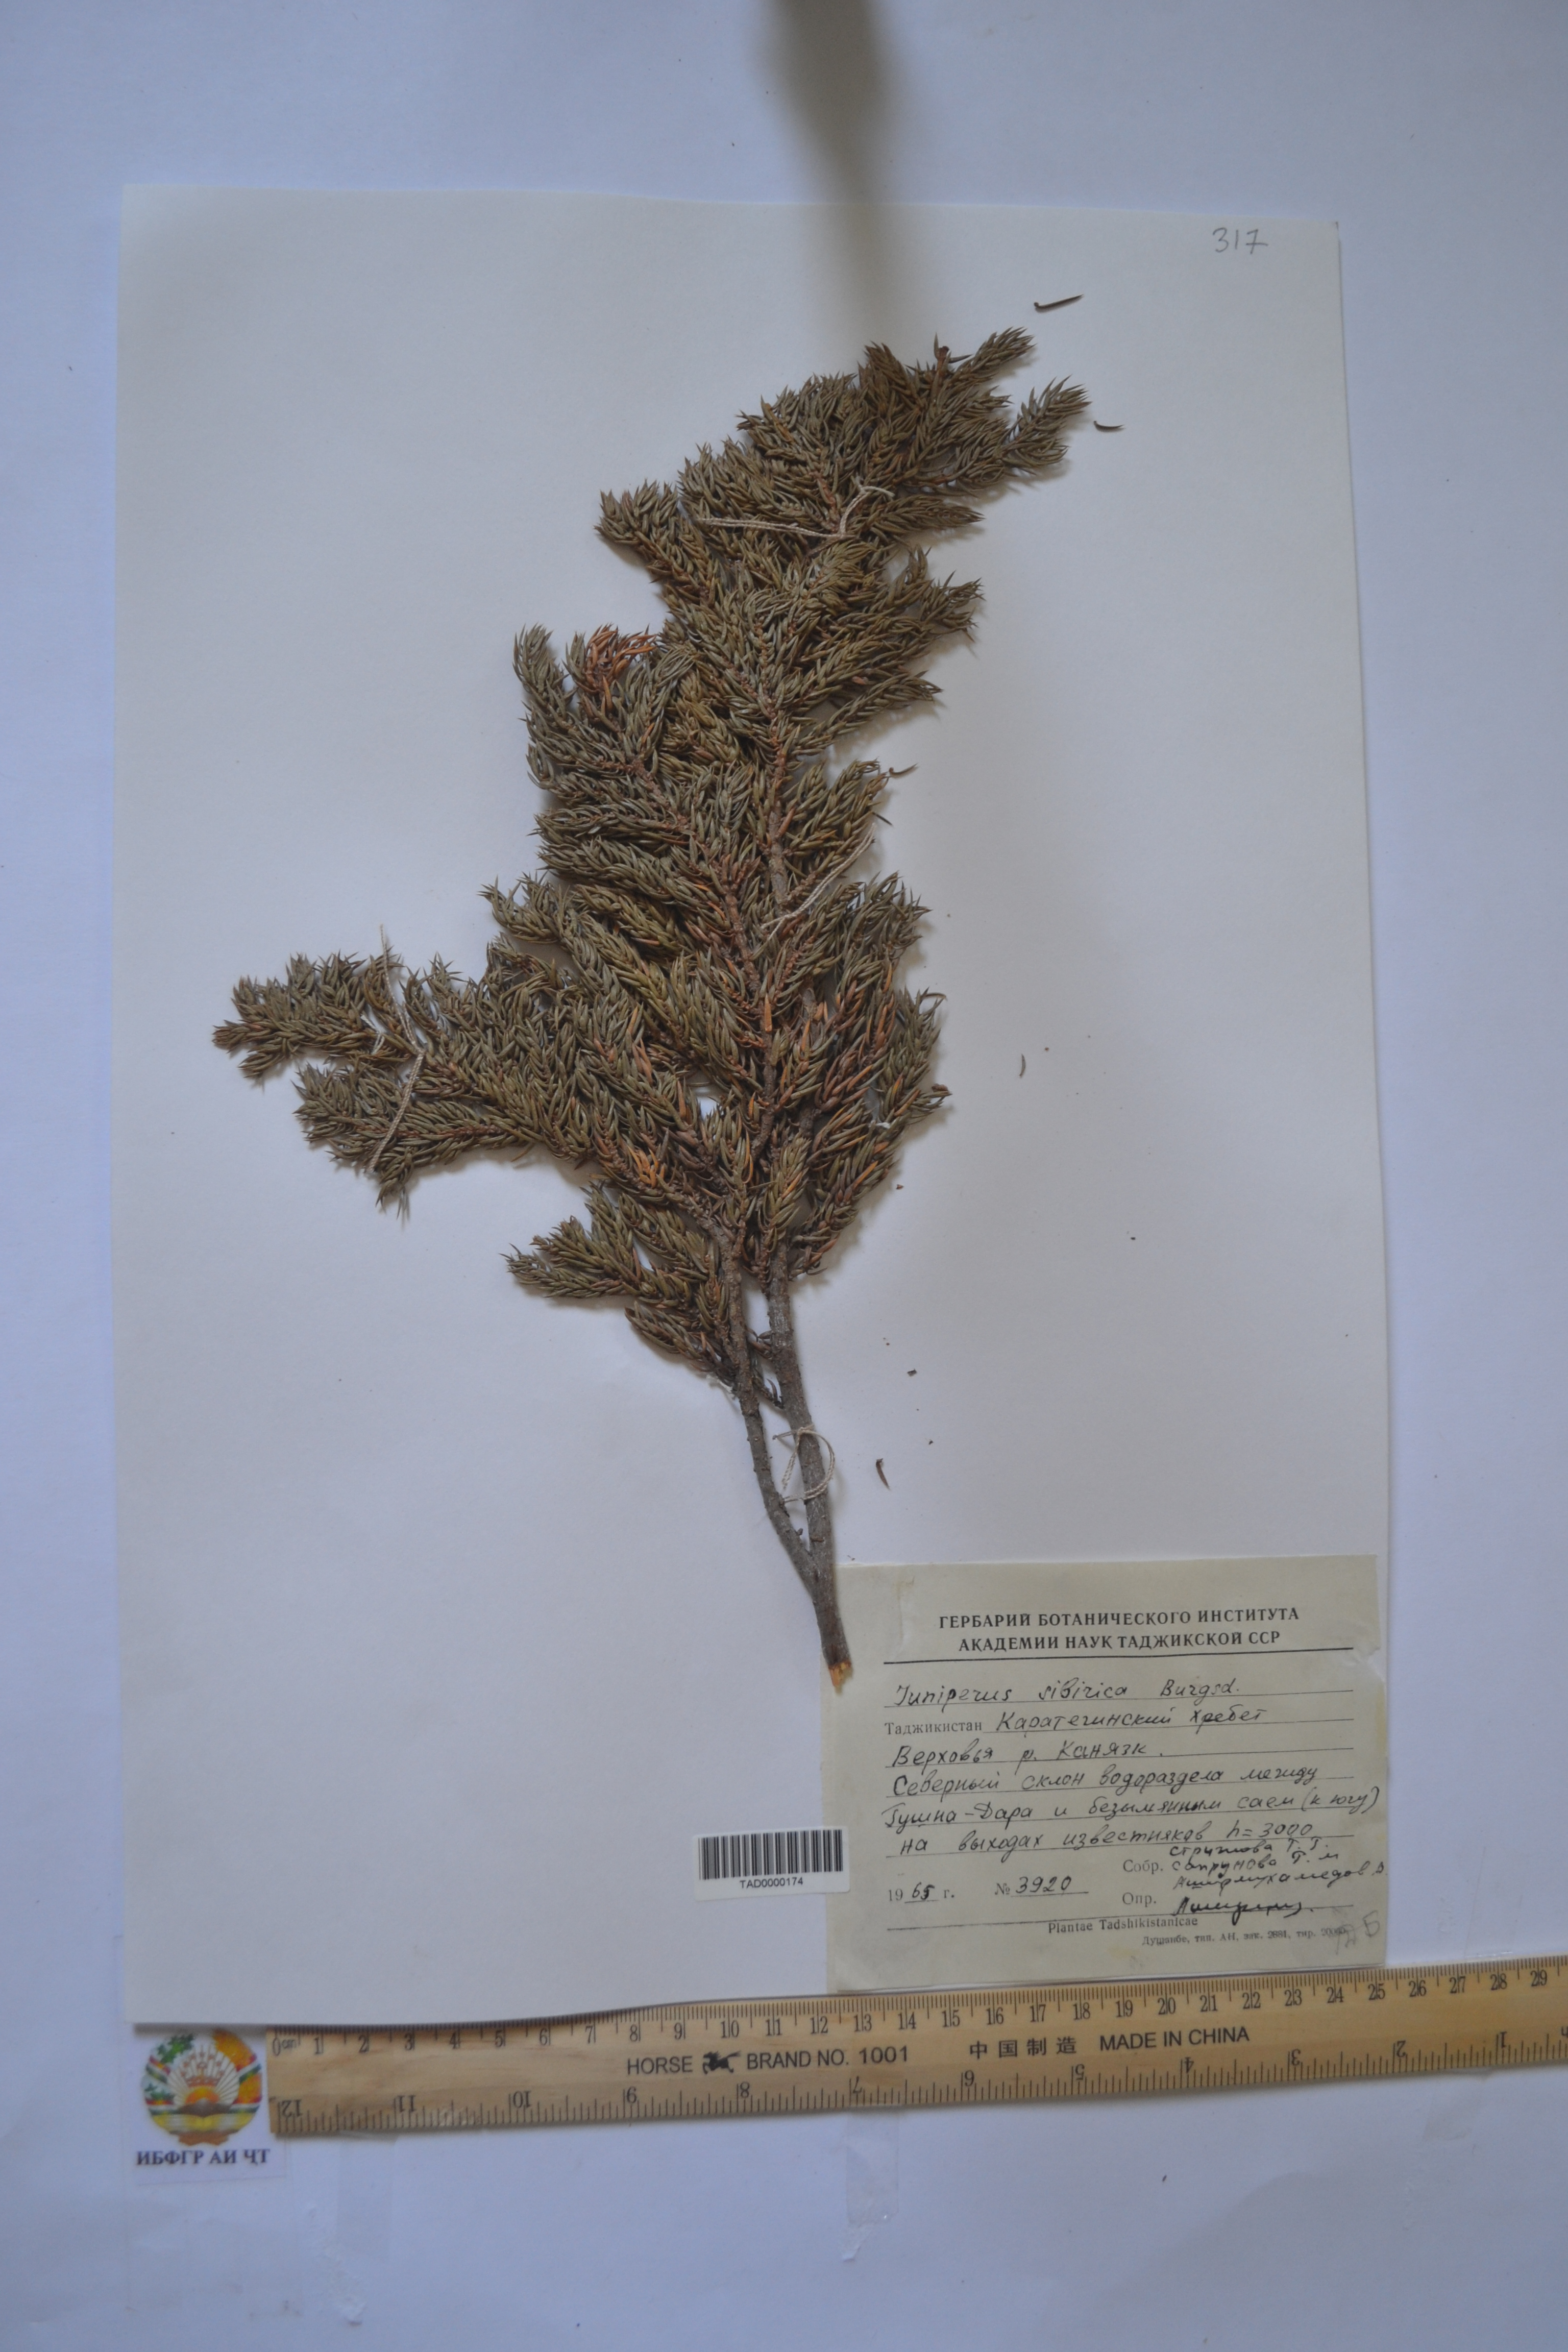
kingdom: Plantae
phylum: Tracheophyta
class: Pinopsida
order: Pinales
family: Cupressaceae
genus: Juniperus
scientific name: Juniperus communis
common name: Common juniper
